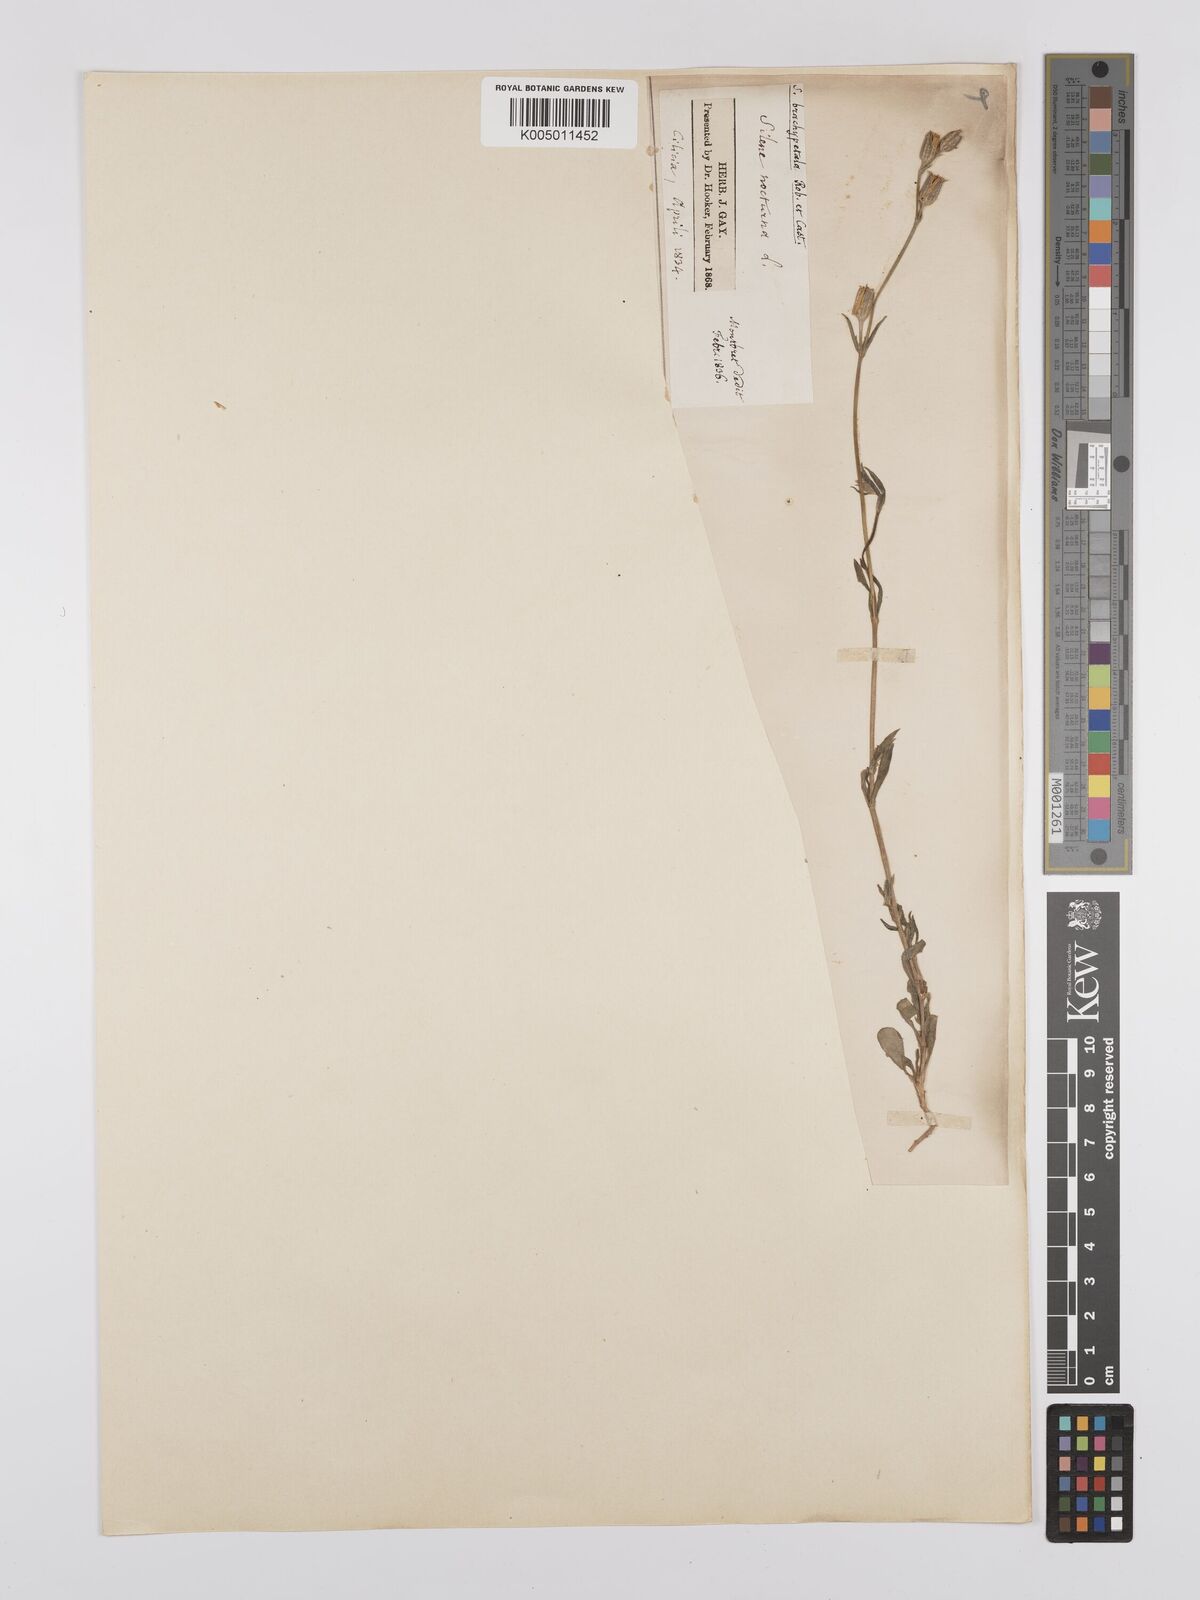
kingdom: Plantae
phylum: Tracheophyta
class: Magnoliopsida
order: Caryophyllales
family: Caryophyllaceae
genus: Silene
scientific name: Silene nocturna
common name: Mediterranean catchfly
